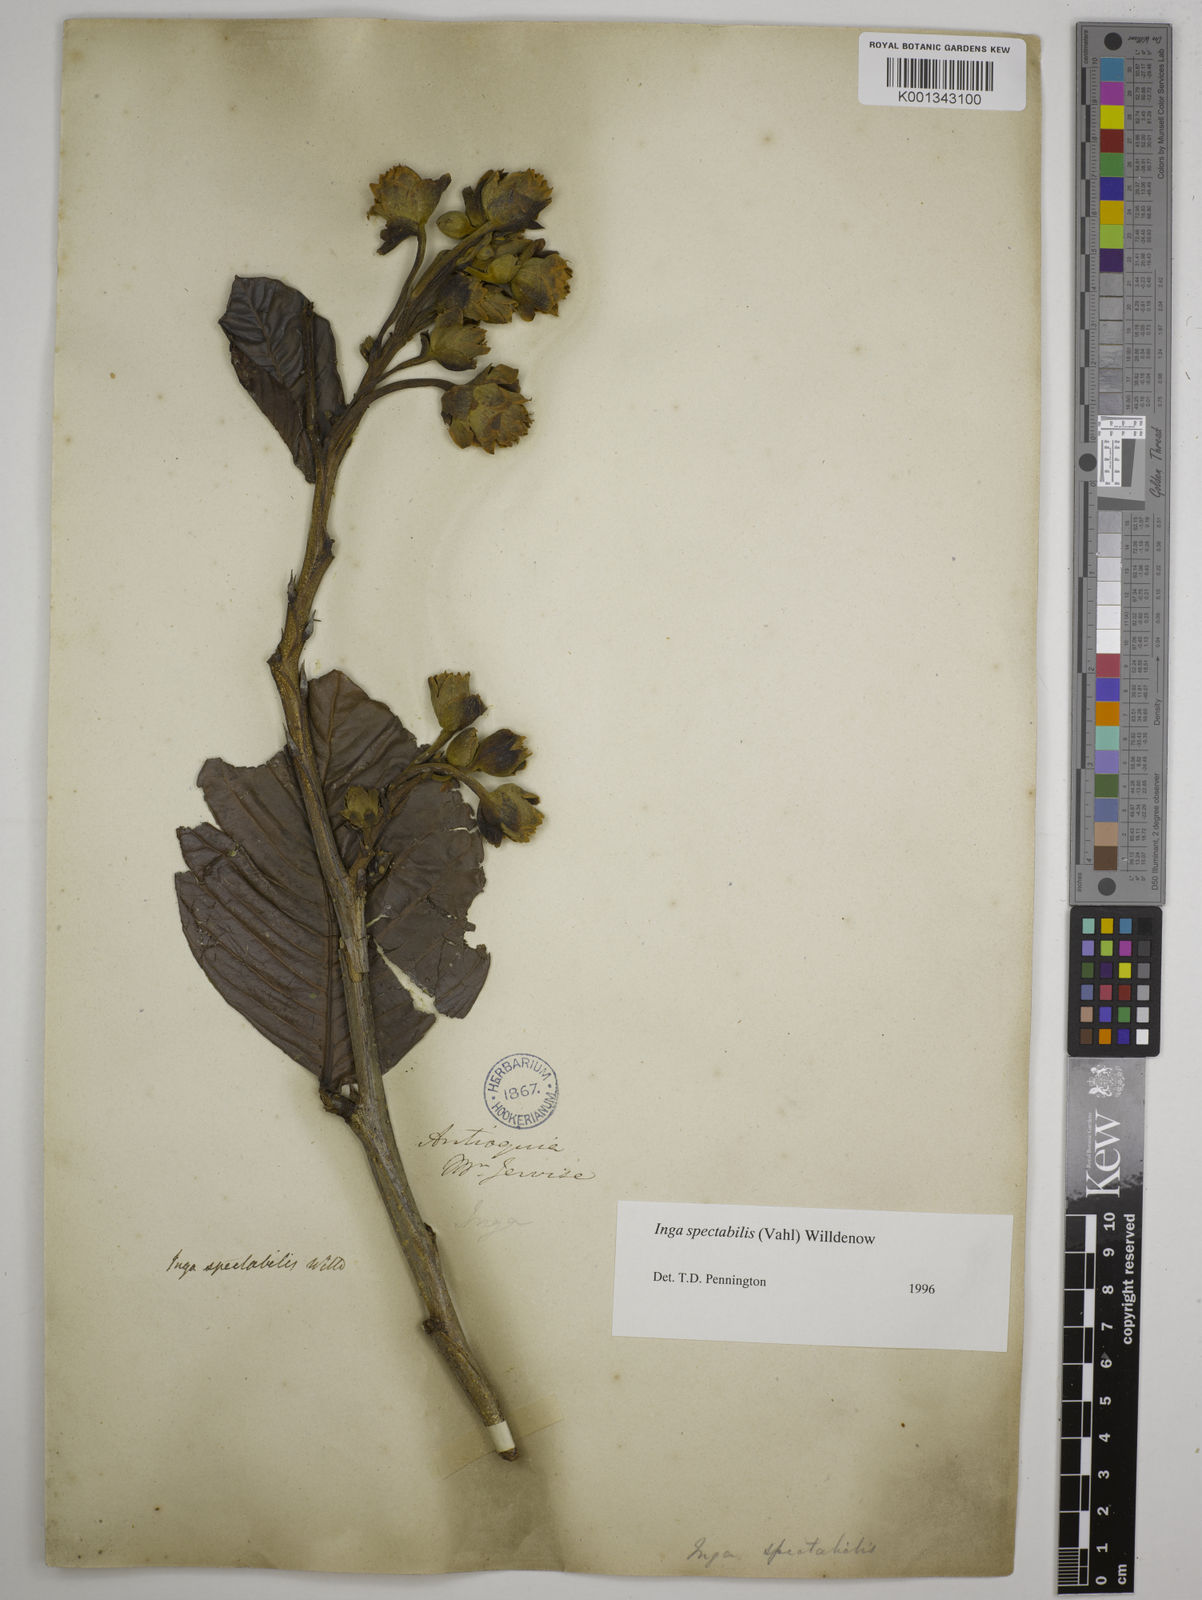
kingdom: Plantae
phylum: Tracheophyta
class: Magnoliopsida
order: Fabales
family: Fabaceae
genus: Inga
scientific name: Inga spectabilis
